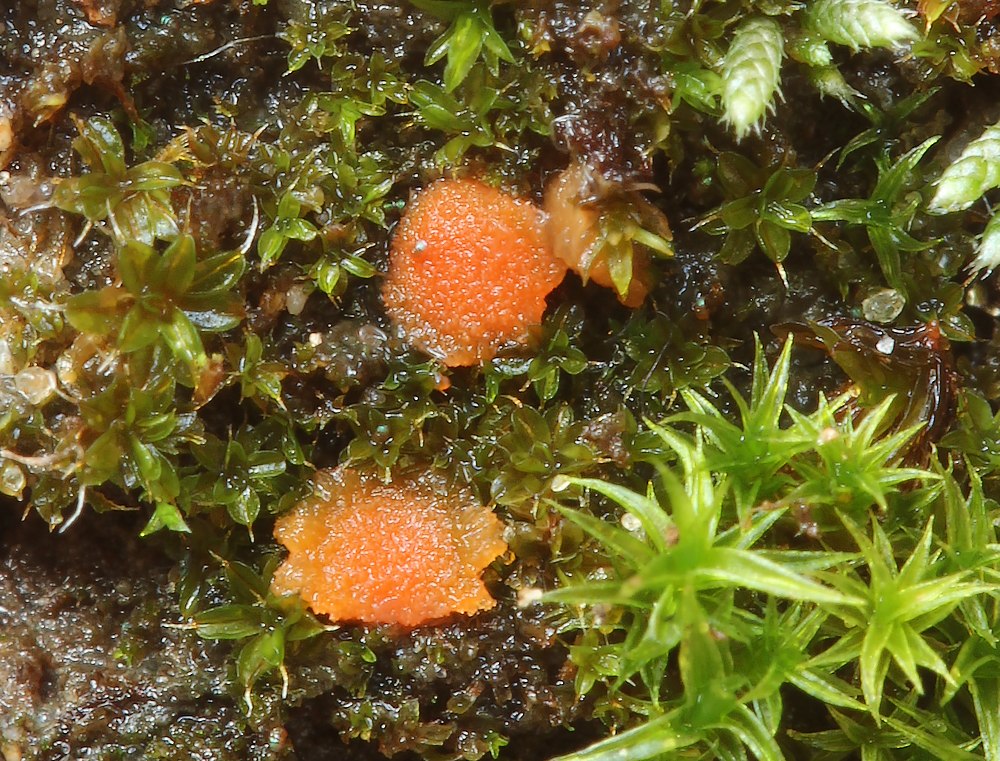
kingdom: Fungi
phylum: Ascomycota
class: Pezizomycetes
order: Pezizales
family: Pyronemataceae
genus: Octospora
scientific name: Octospora musci-muralis
